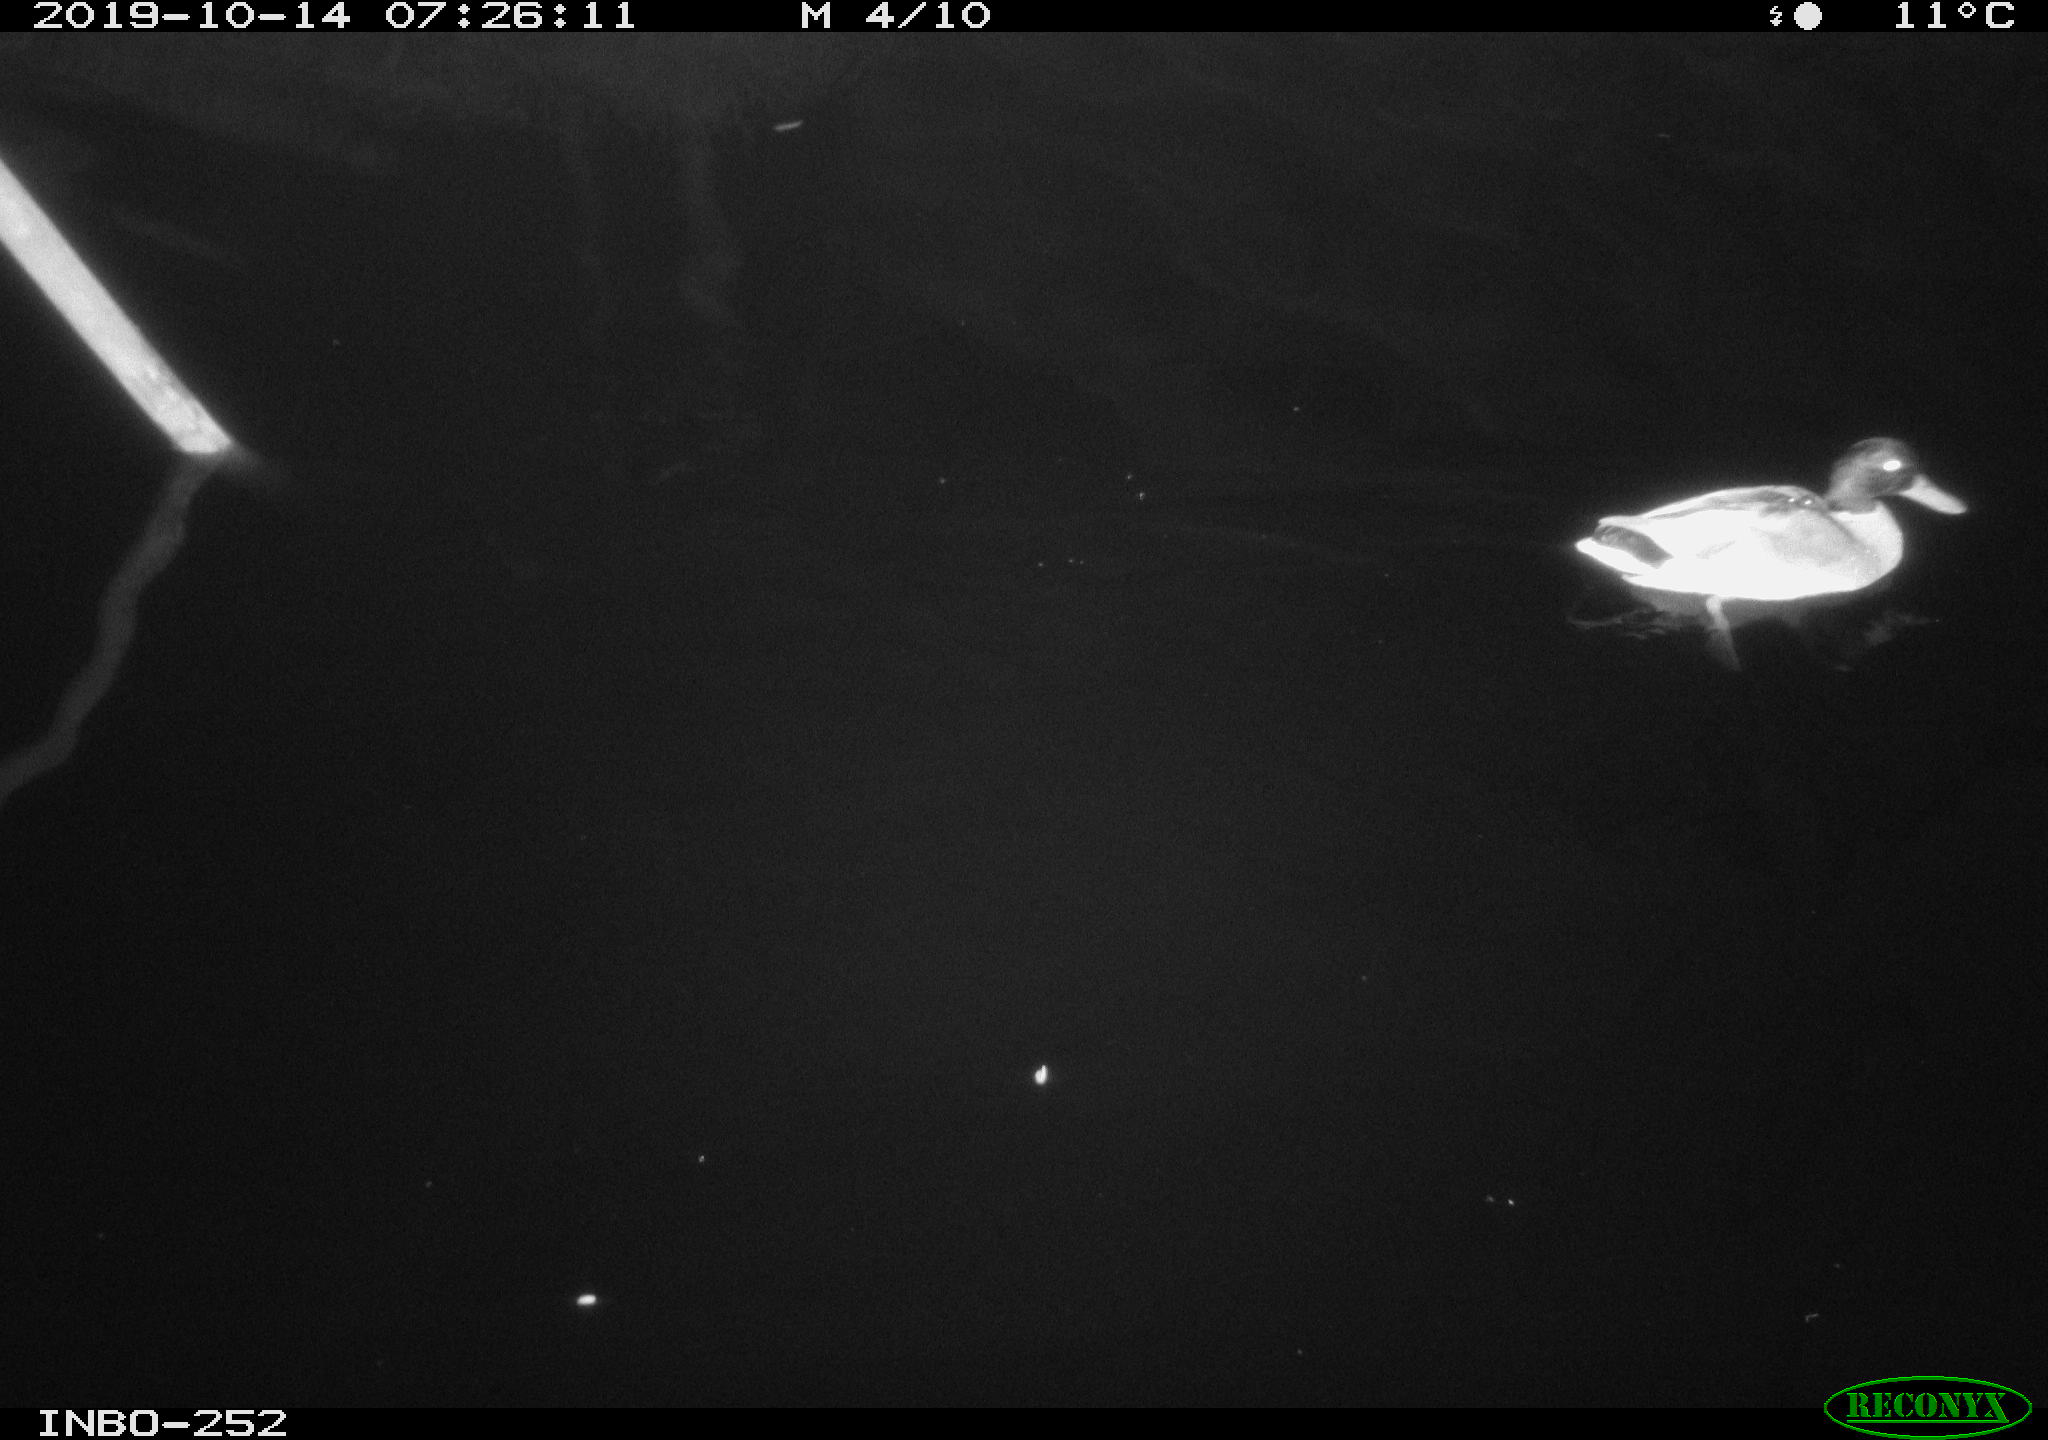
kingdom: Animalia
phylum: Chordata
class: Aves
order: Gruiformes
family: Rallidae
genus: Gallinula
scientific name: Gallinula chloropus
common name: Common moorhen
